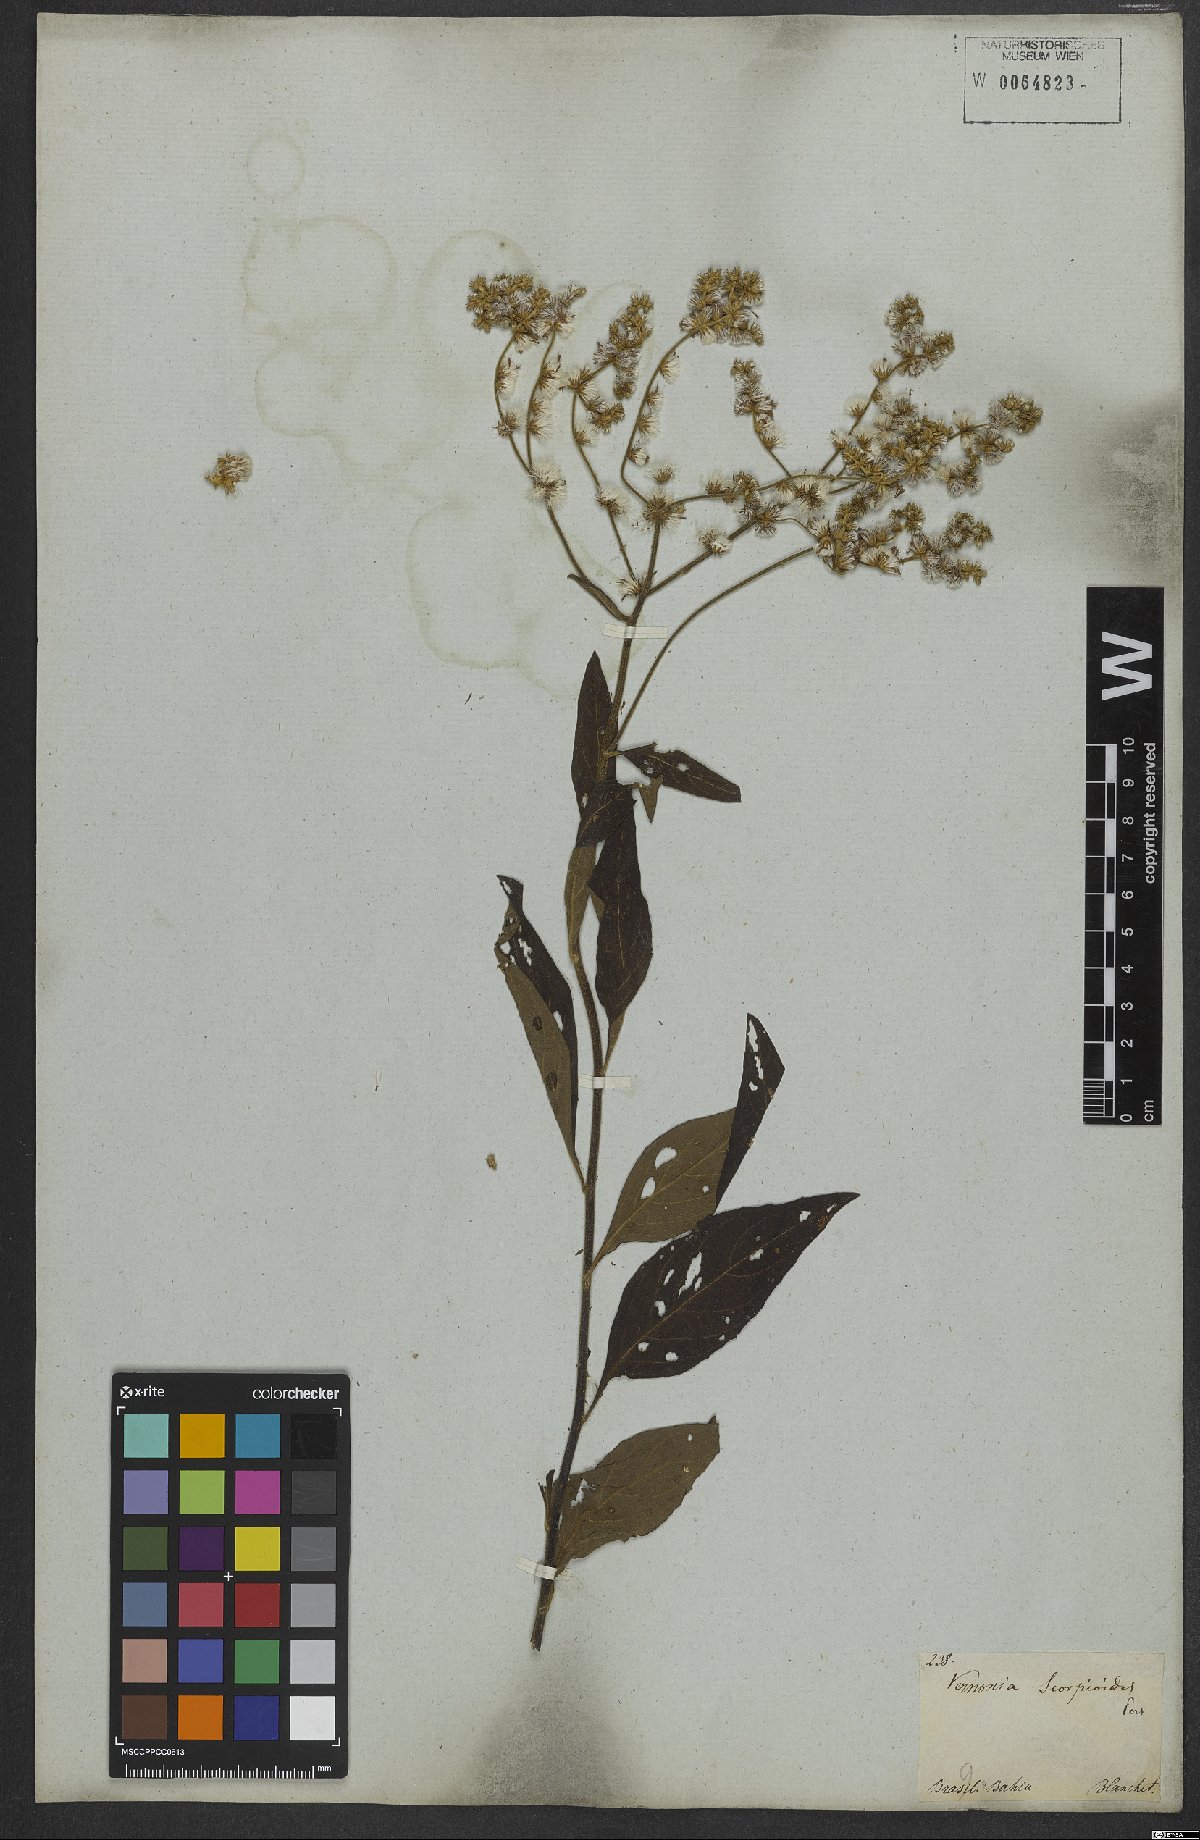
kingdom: Plantae
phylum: Tracheophyta
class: Magnoliopsida
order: Asterales
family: Asteraceae
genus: Cyrtocymura
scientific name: Cyrtocymura scorpioides
